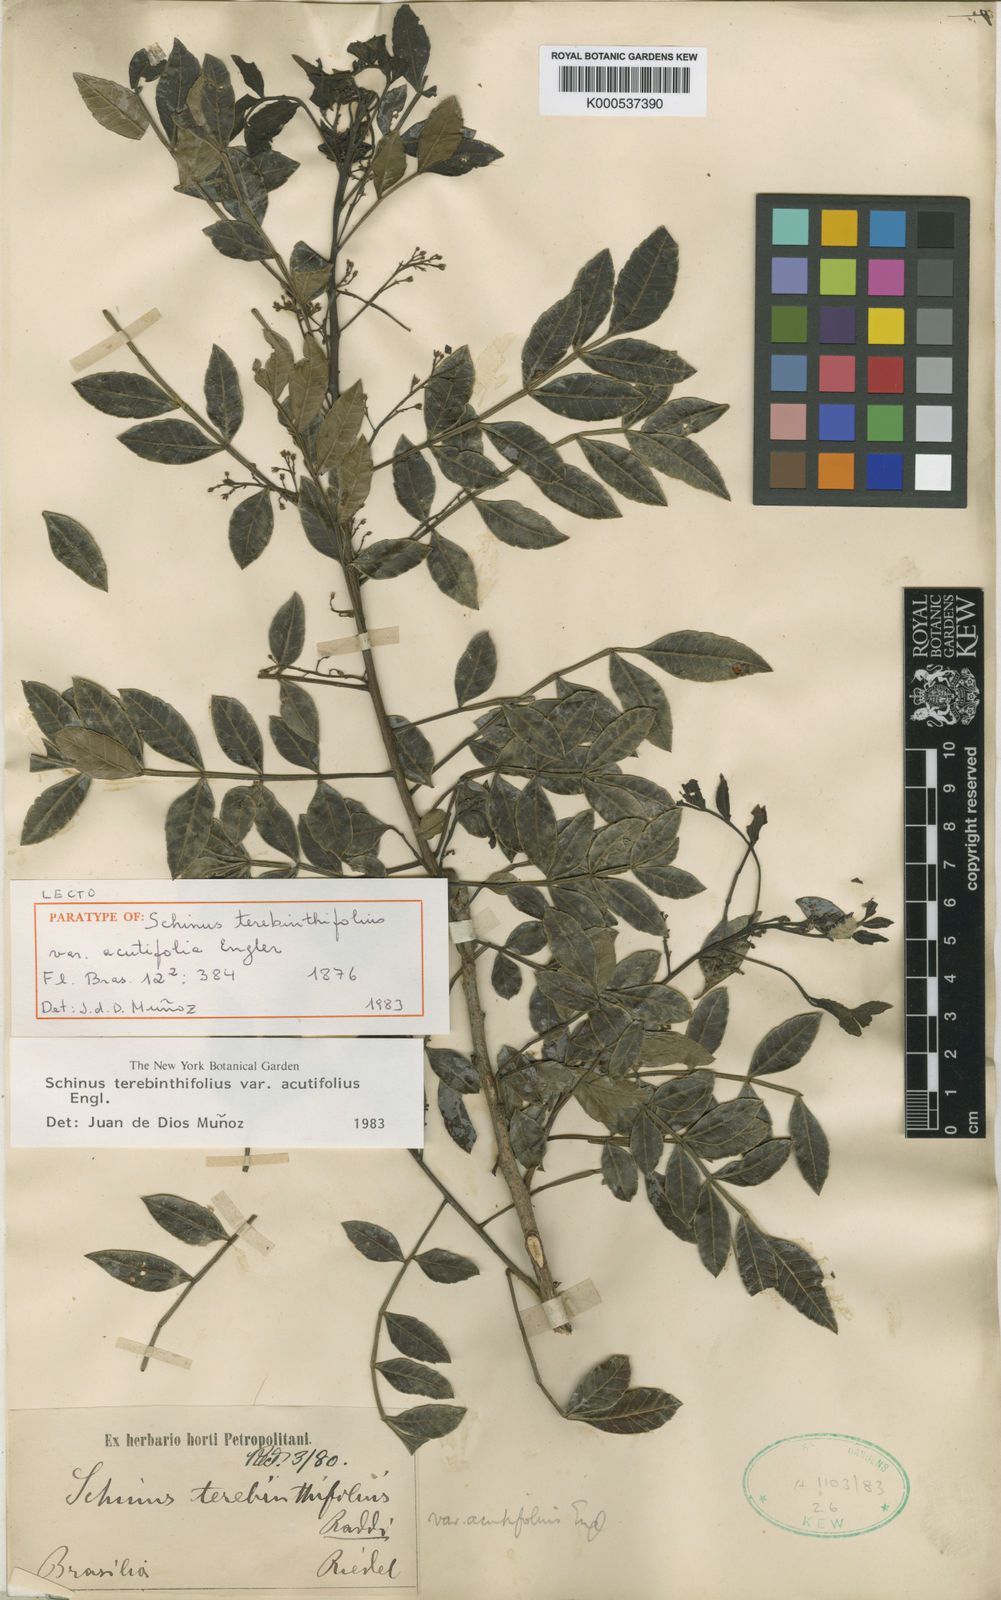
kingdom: Plantae
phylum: Tracheophyta
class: Magnoliopsida
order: Sapindales
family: Anacardiaceae
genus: Schinus
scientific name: Schinus terebinthifolia
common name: Brazilian peppertree
